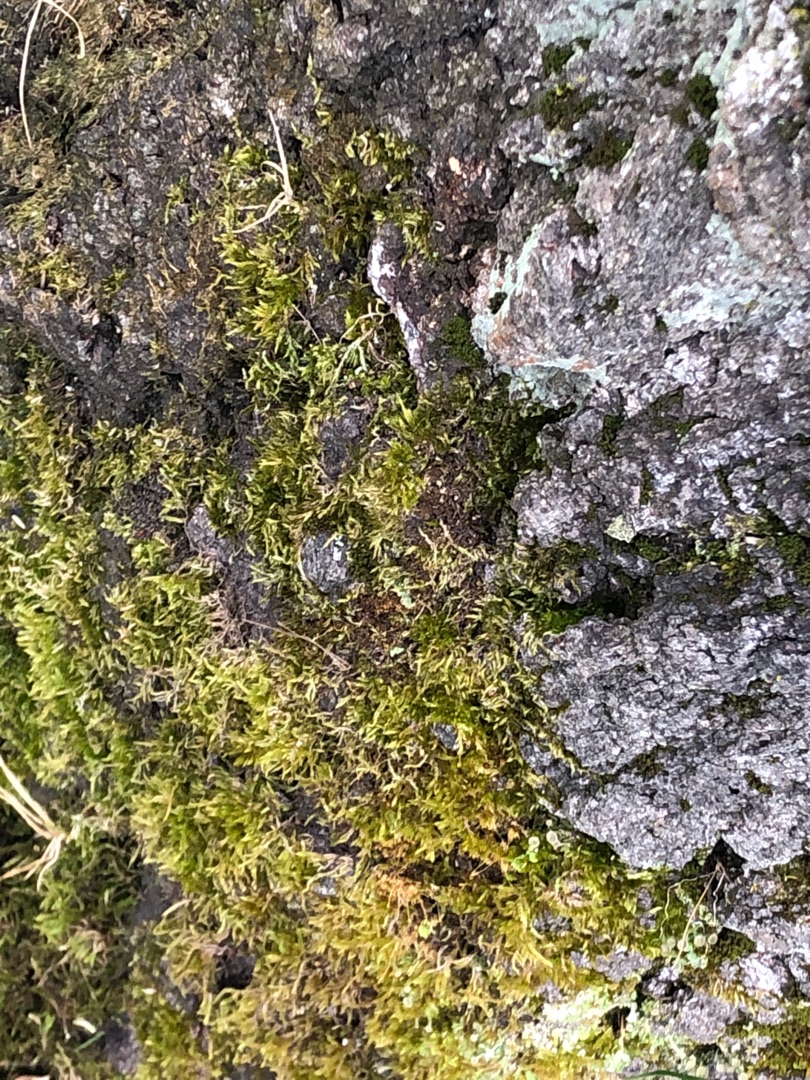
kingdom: Plantae
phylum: Bryophyta
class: Bryopsida
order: Hypnales
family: Hypnaceae
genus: Hypnum
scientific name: Hypnum
